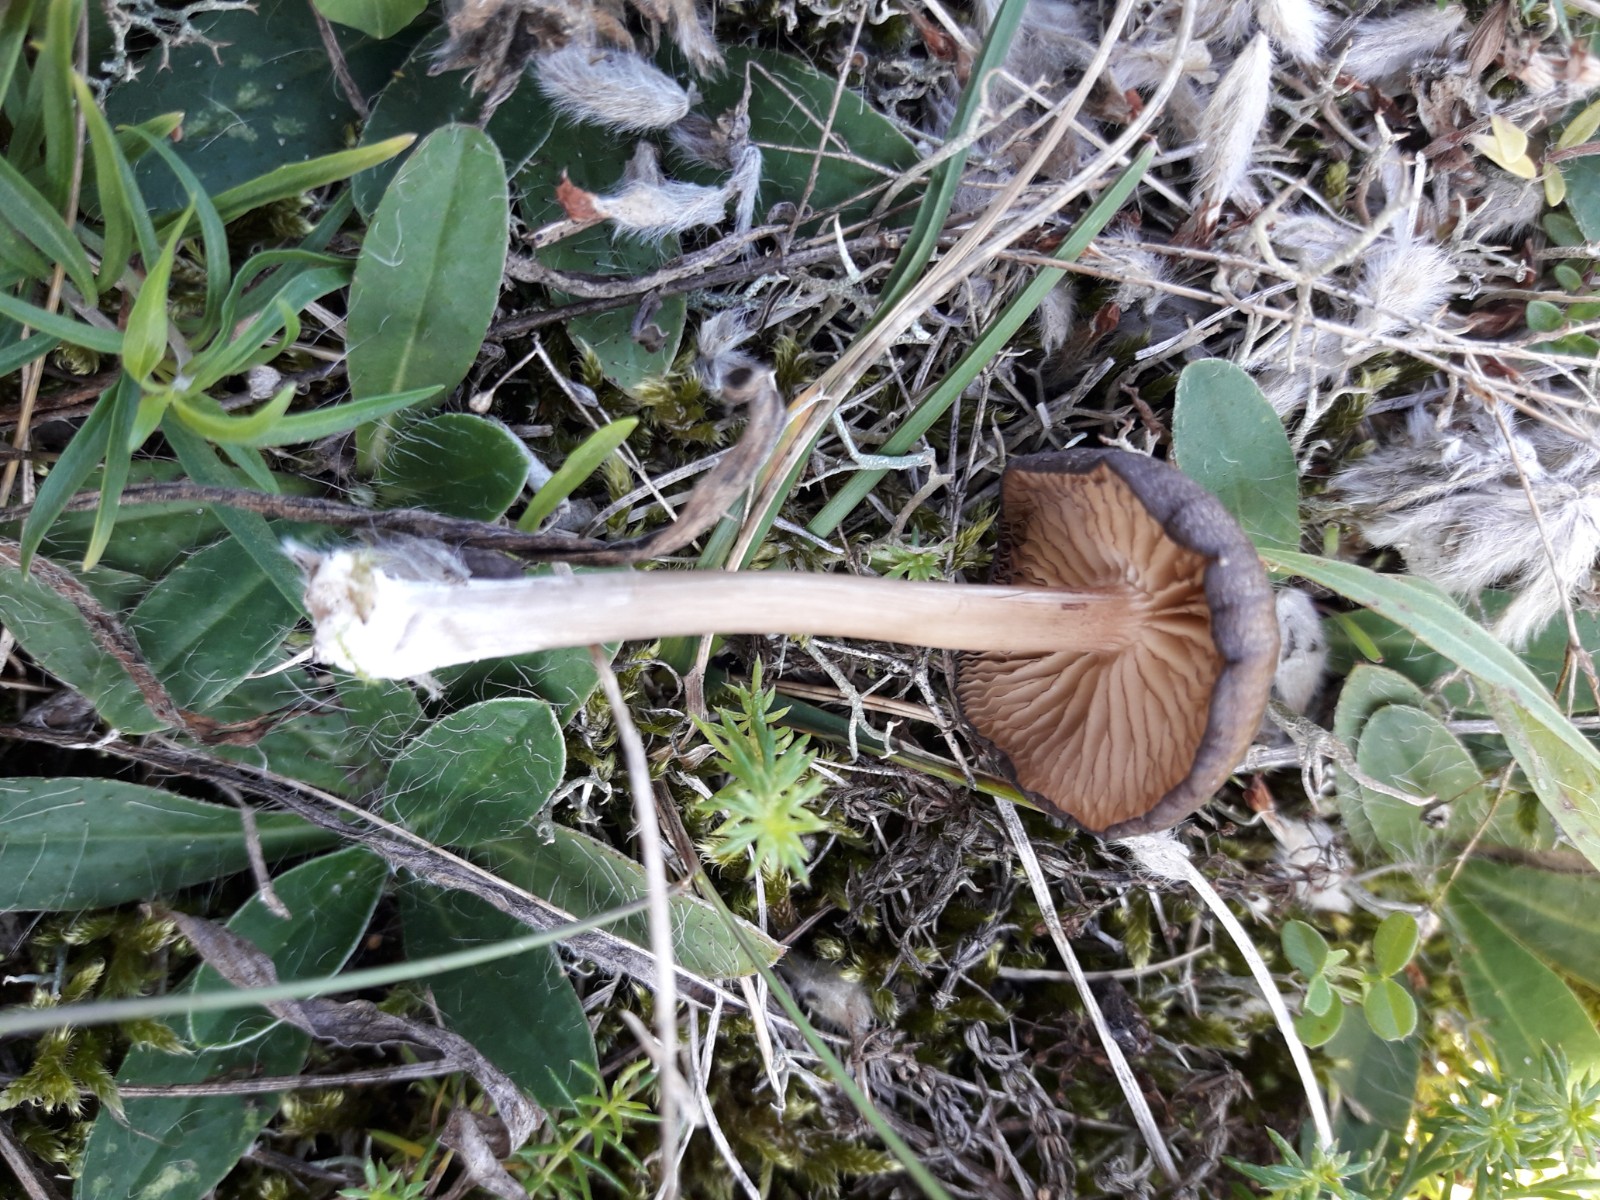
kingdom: Fungi
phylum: Basidiomycota
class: Agaricomycetes
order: Agaricales
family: Entolomataceae
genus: Entoloma
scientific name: Entoloma
